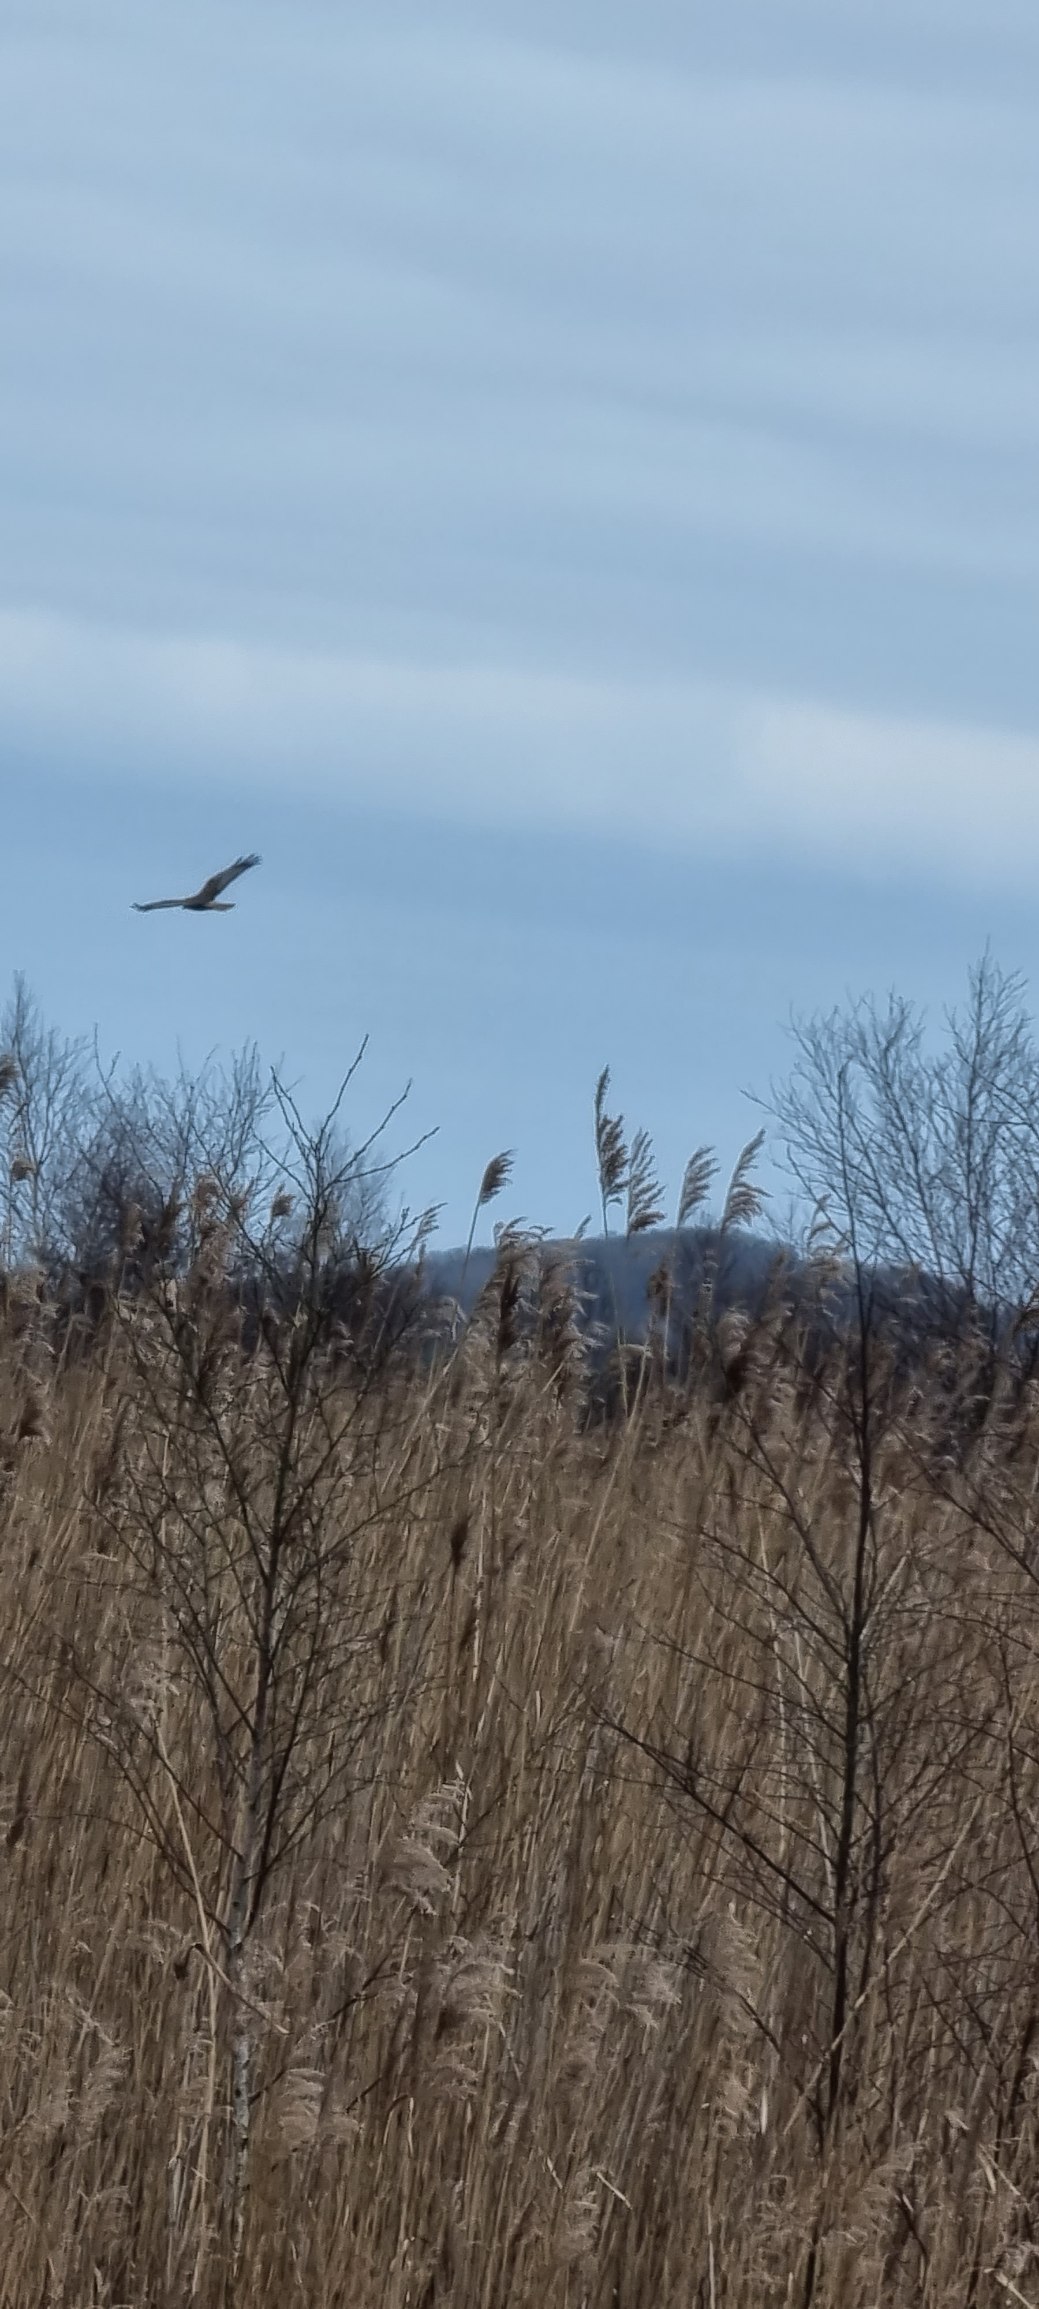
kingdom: Animalia
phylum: Chordata
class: Aves
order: Accipitriformes
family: Accipitridae
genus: Circus
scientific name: Circus aeruginosus
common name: Rørhøg
